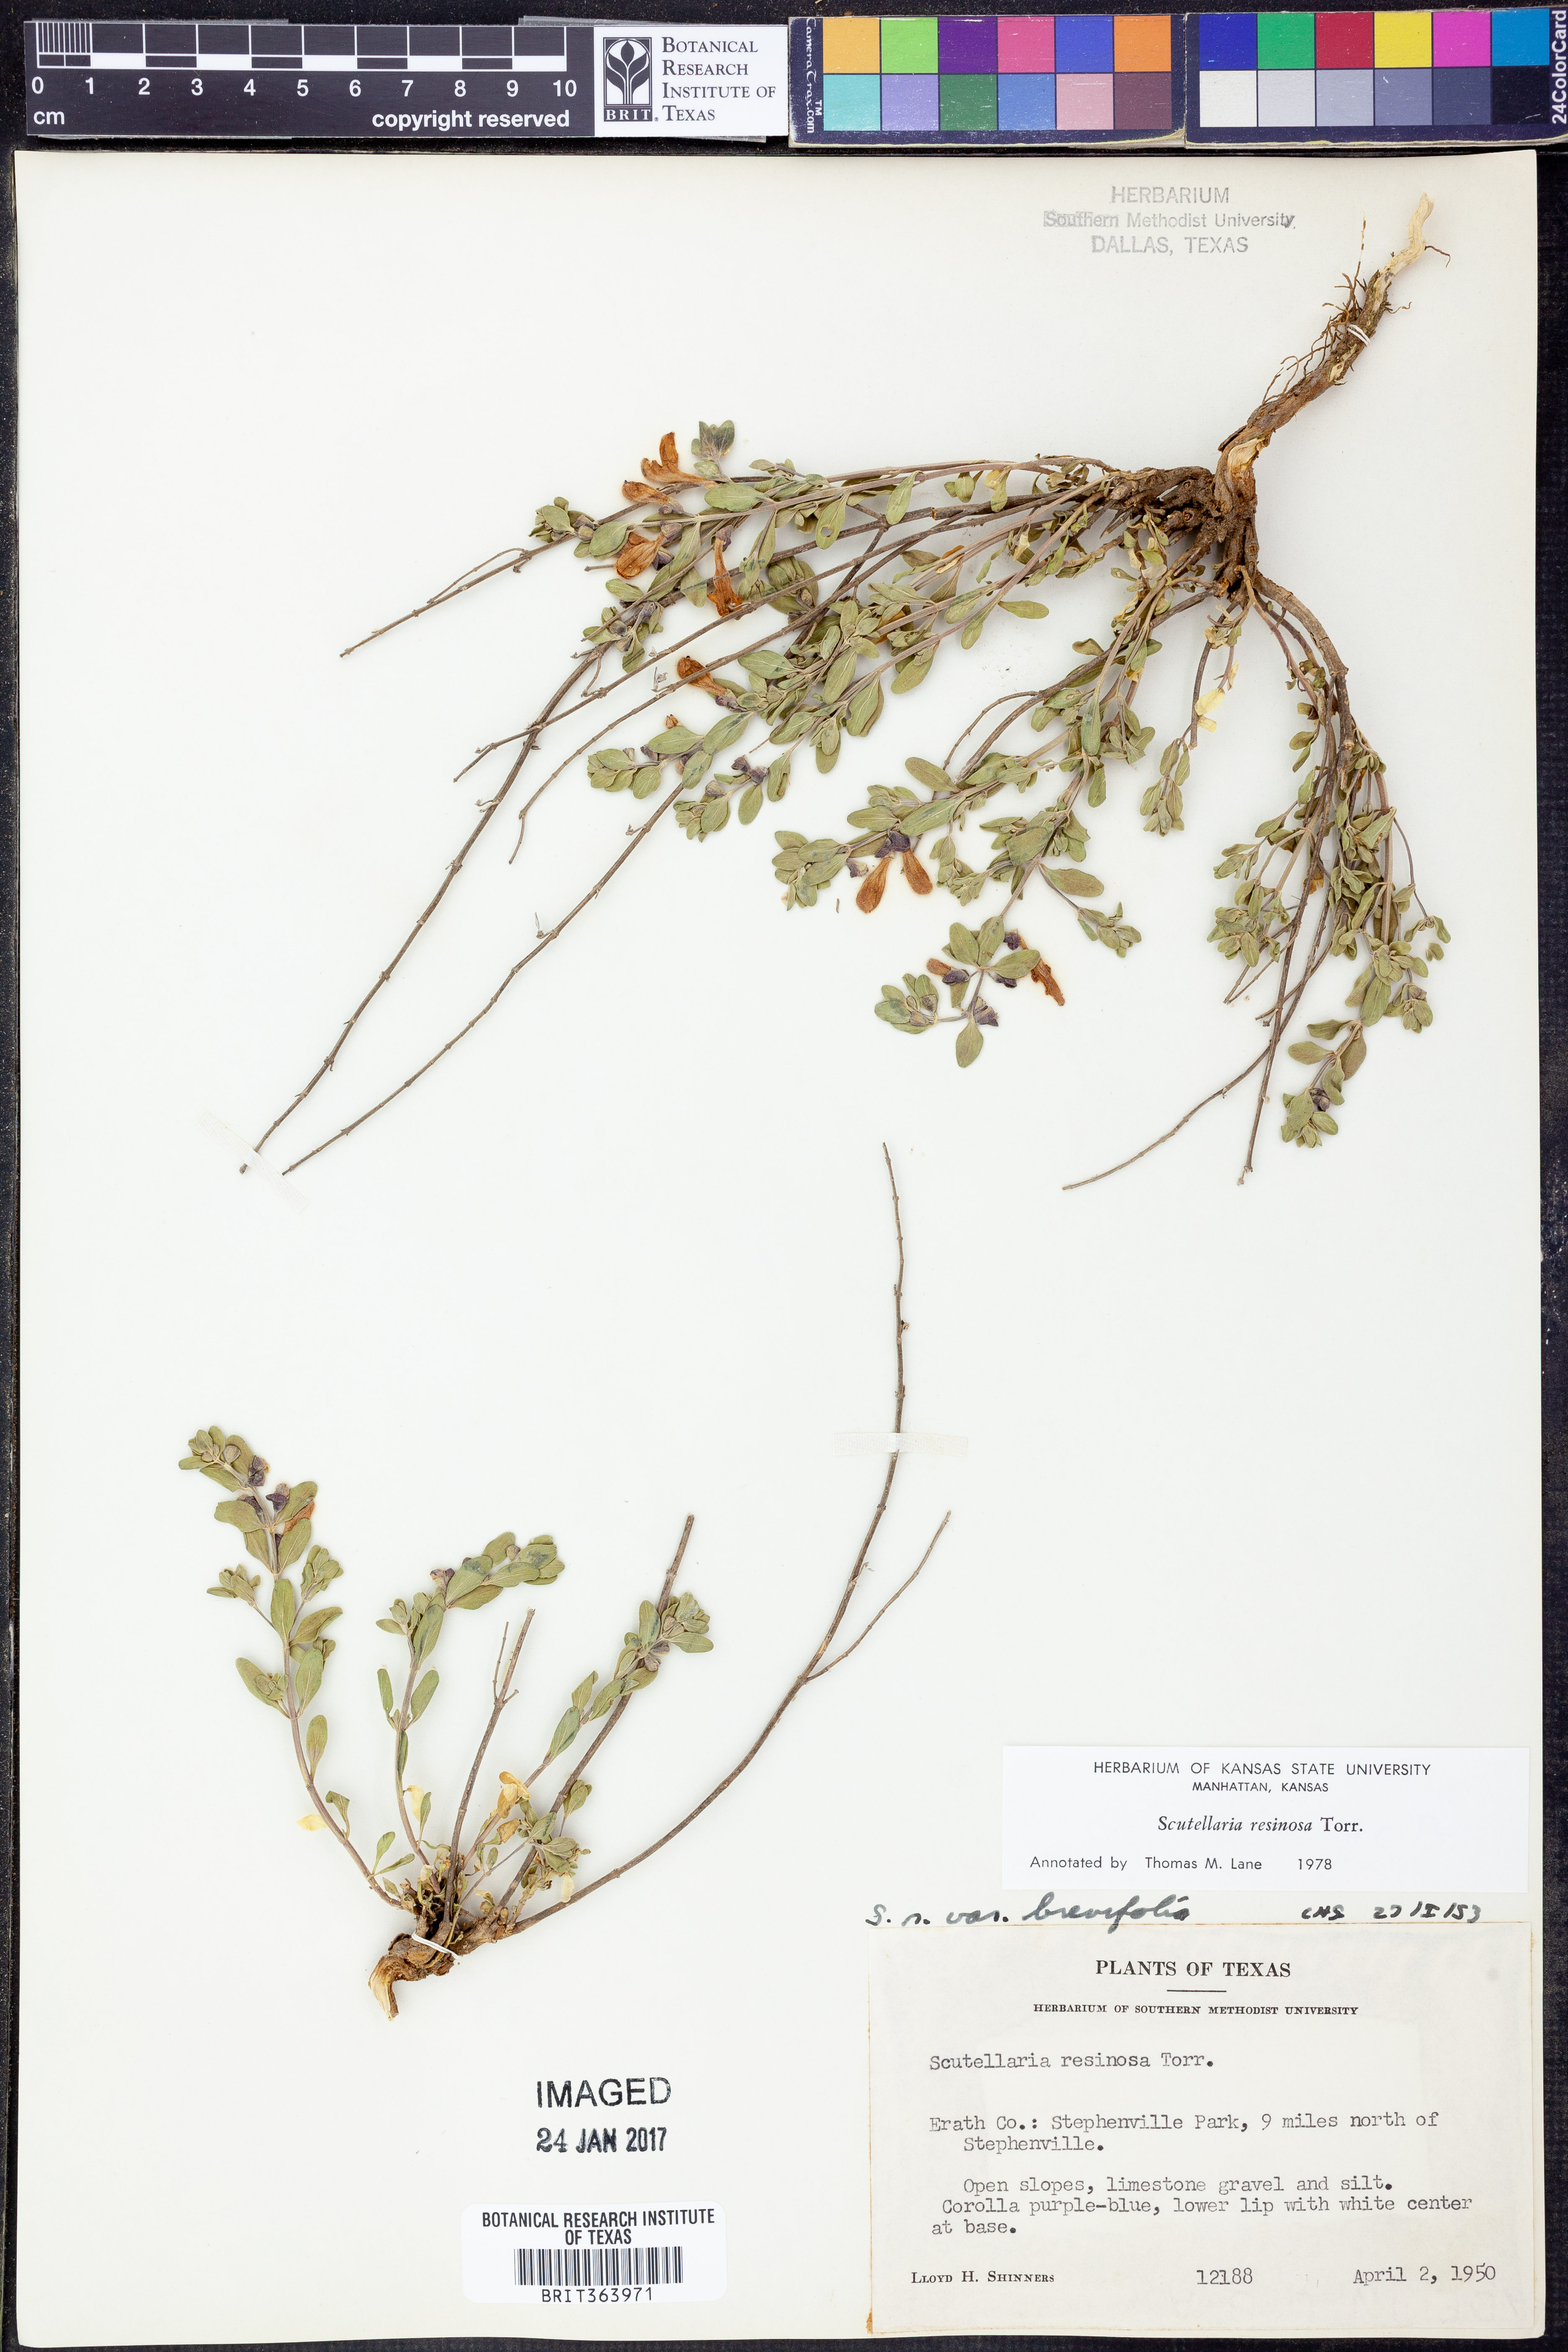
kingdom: Plantae
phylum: Tracheophyta
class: Magnoliopsida
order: Lamiales
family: Lamiaceae
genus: Scutellaria
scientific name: Scutellaria resinosa
